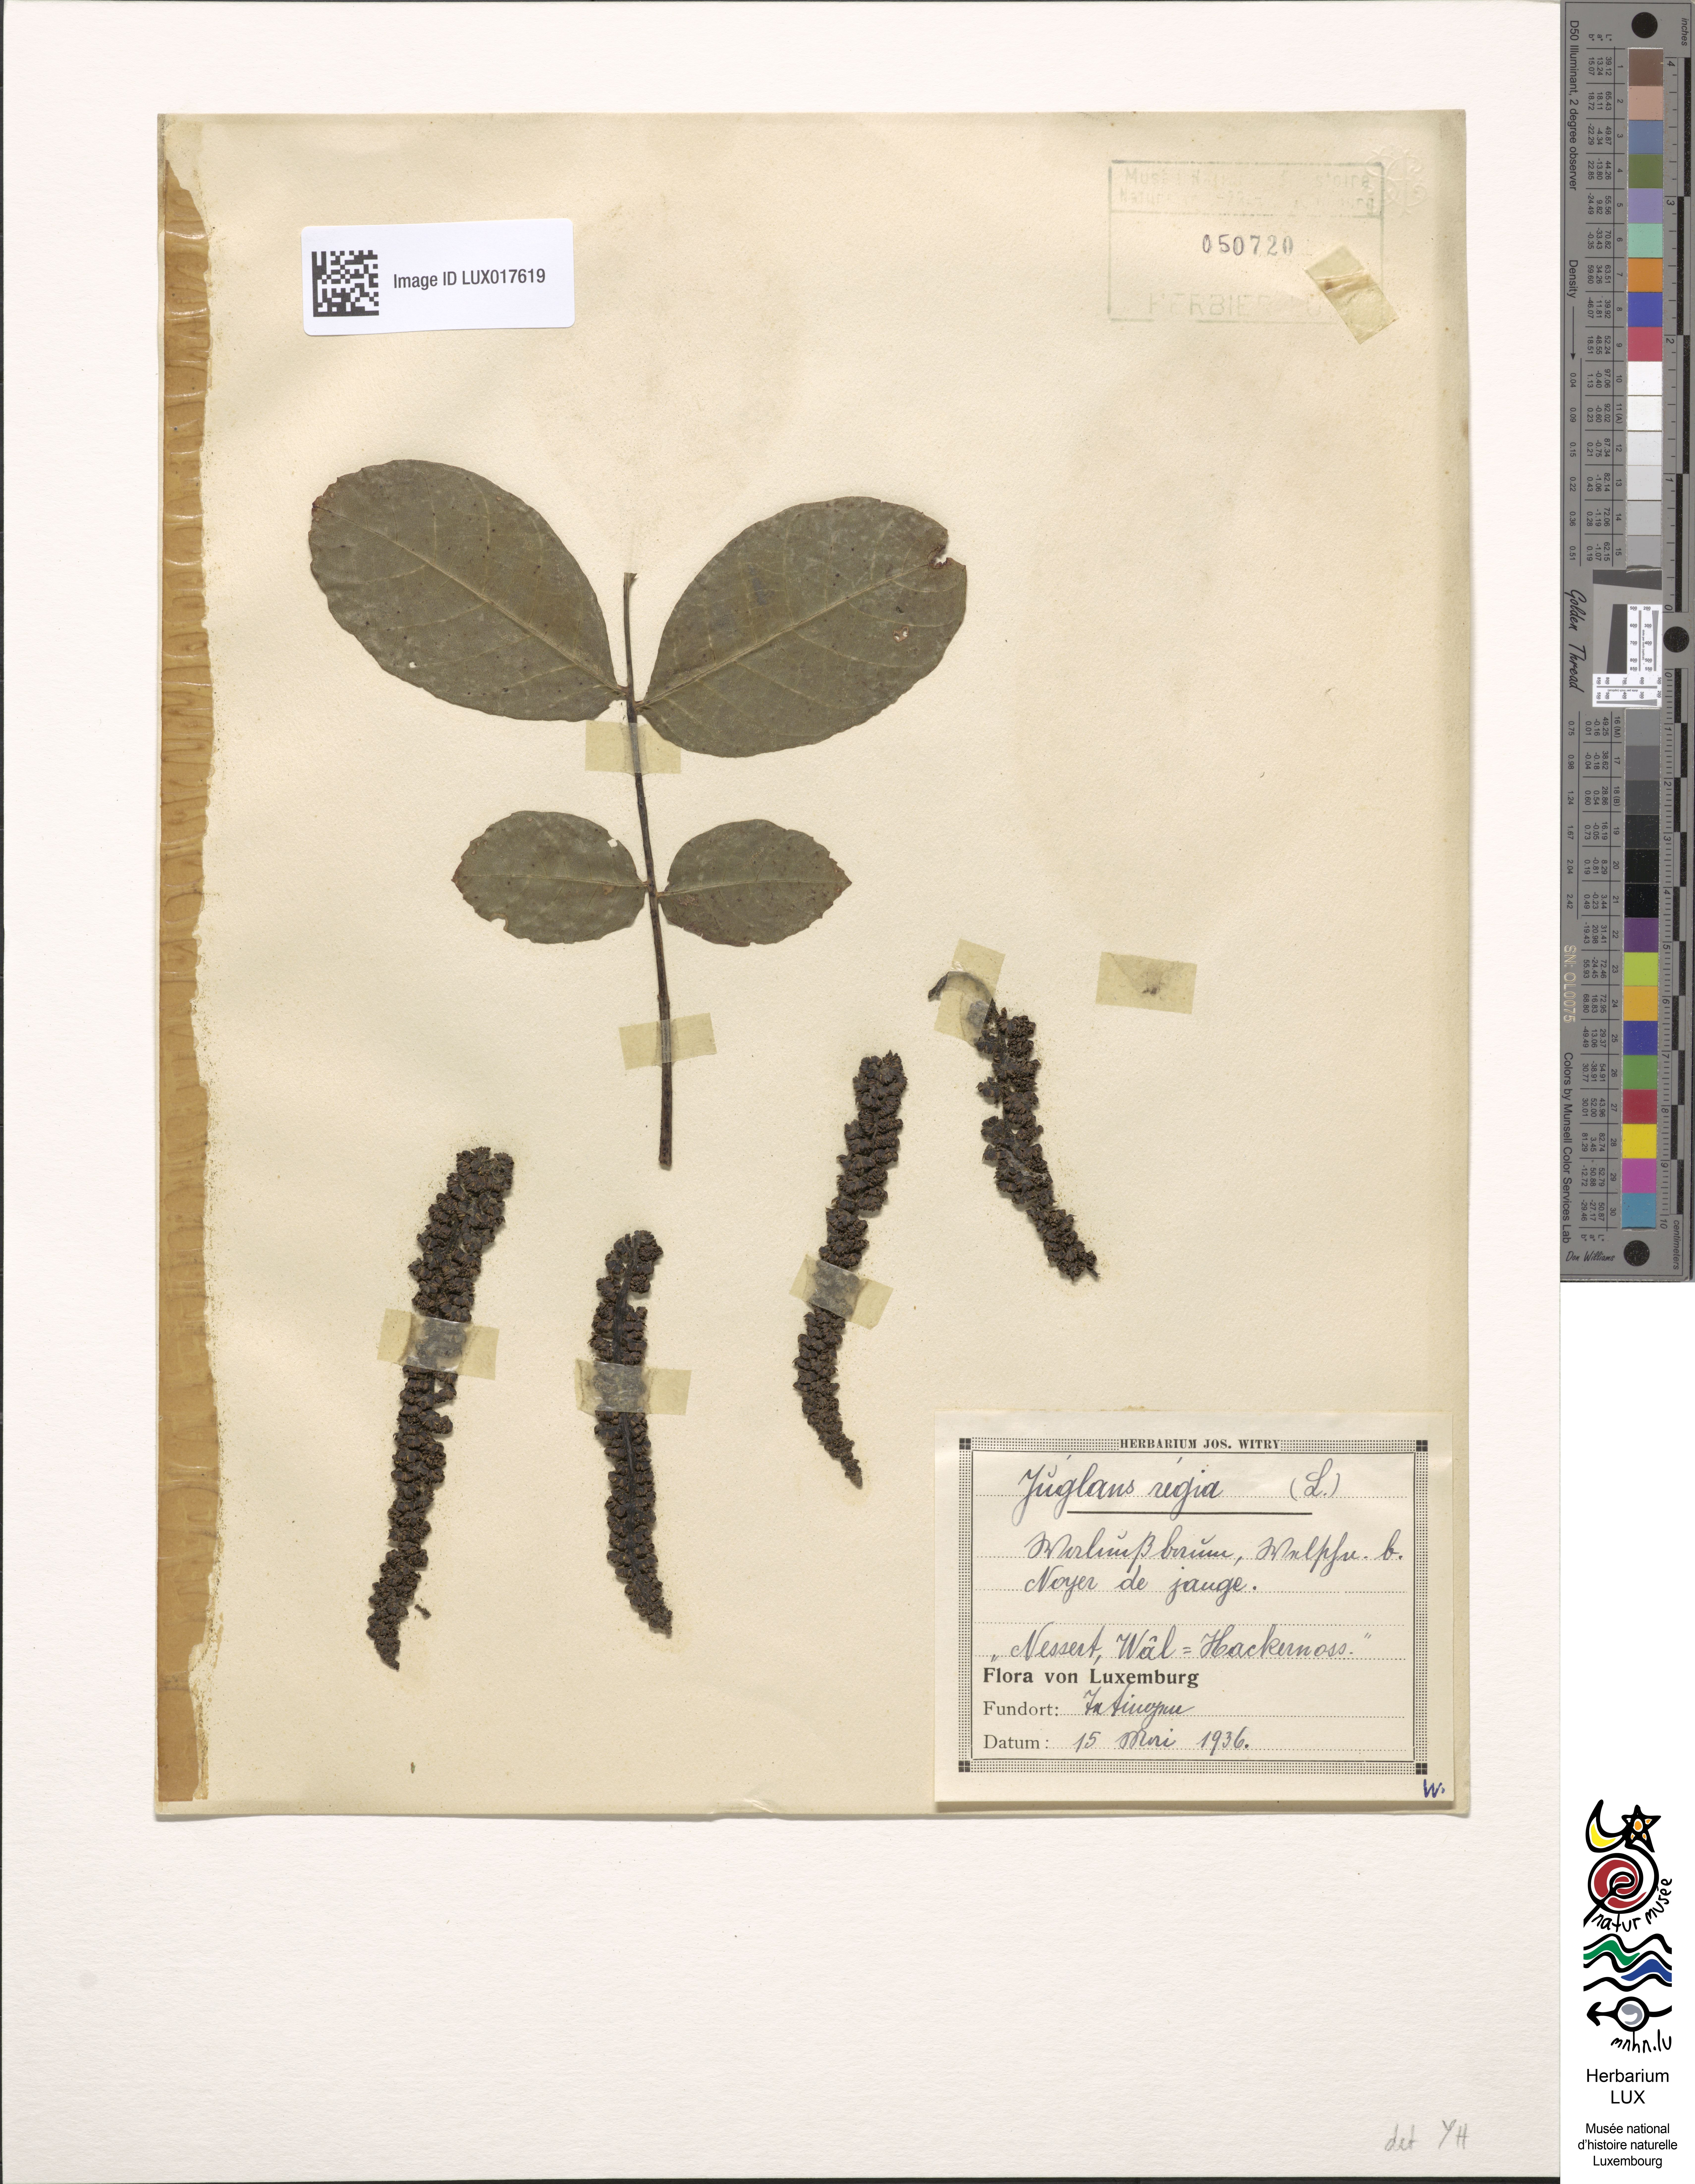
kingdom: Plantae
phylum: Tracheophyta
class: Magnoliopsida
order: Fagales
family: Juglandaceae
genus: Juglans
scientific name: Juglans regia
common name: Walnut
